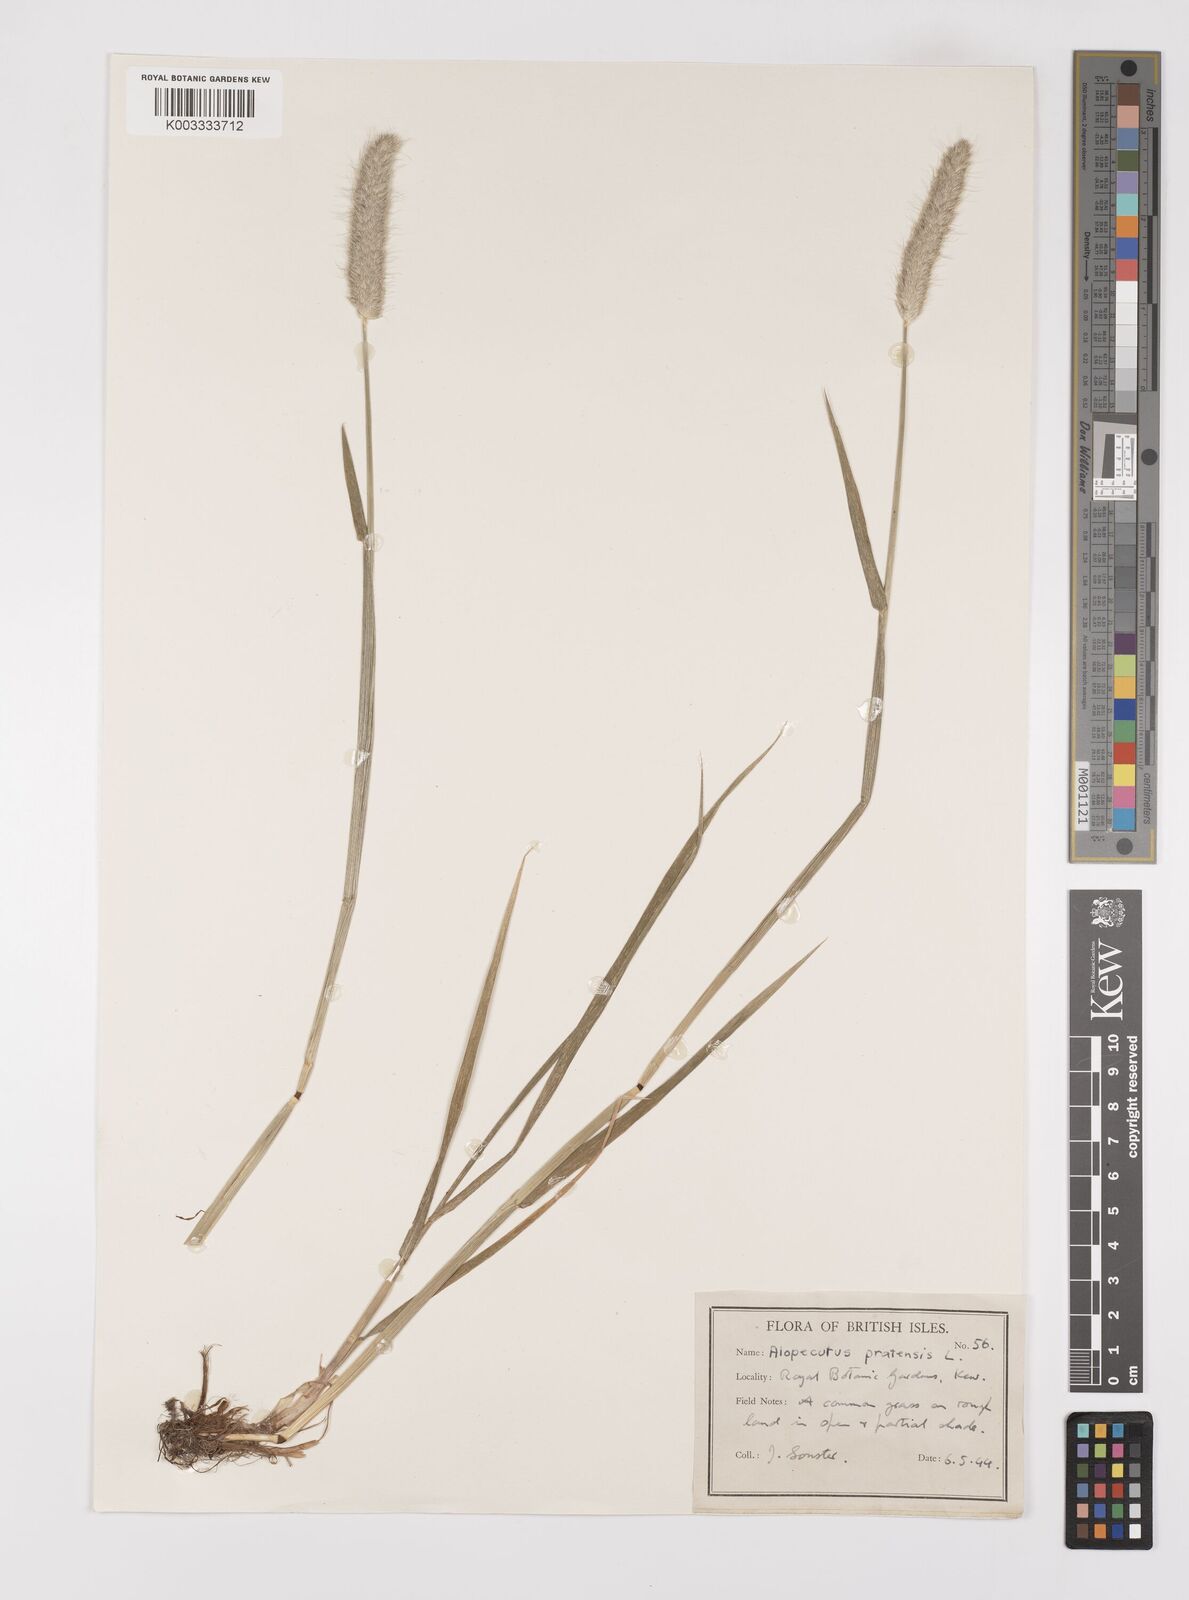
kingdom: Plantae
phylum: Tracheophyta
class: Liliopsida
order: Poales
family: Poaceae
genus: Alopecurus
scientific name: Alopecurus pratensis
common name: Meadow foxtail
